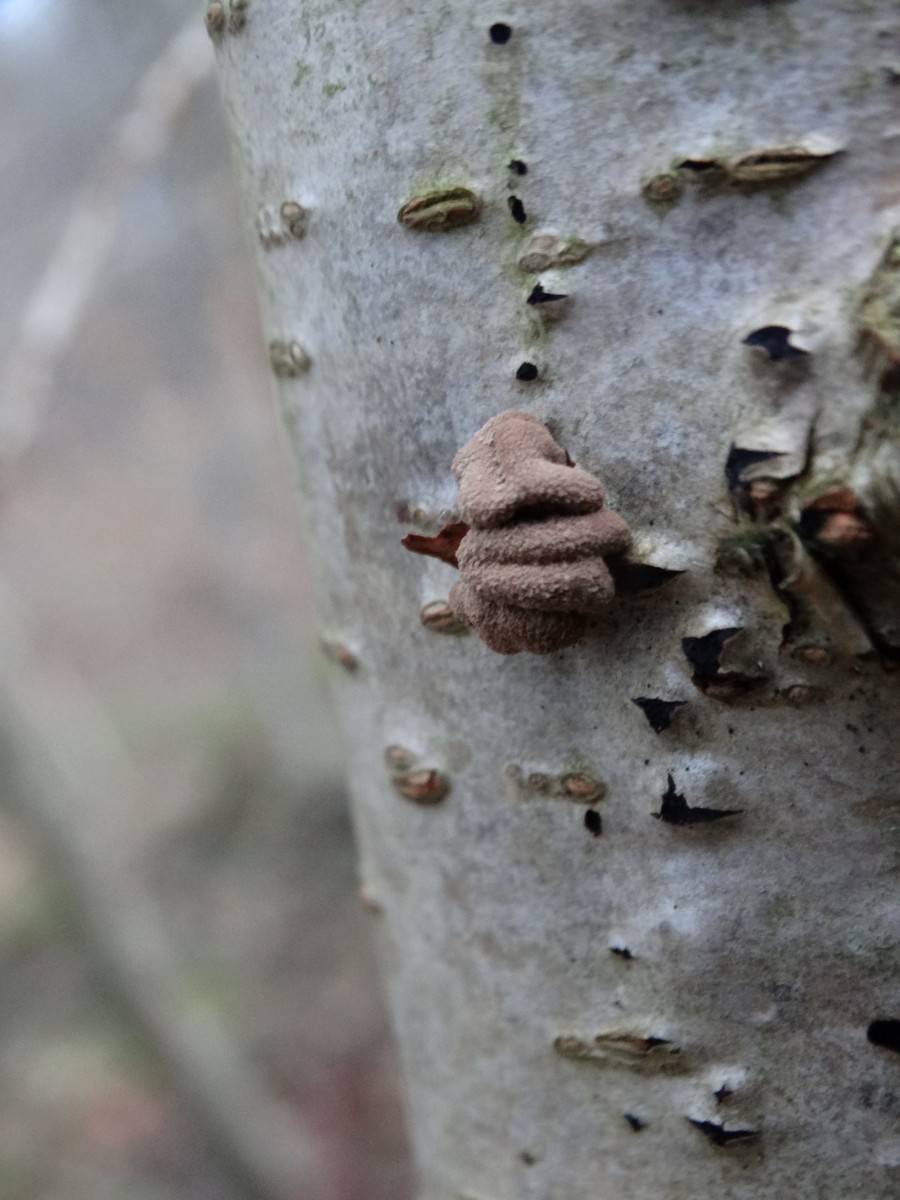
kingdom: Fungi
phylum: Ascomycota
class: Leotiomycetes
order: Helotiales
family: Cenangiaceae
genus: Encoelia
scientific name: Encoelia furfuracea
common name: hassel-læderskive
